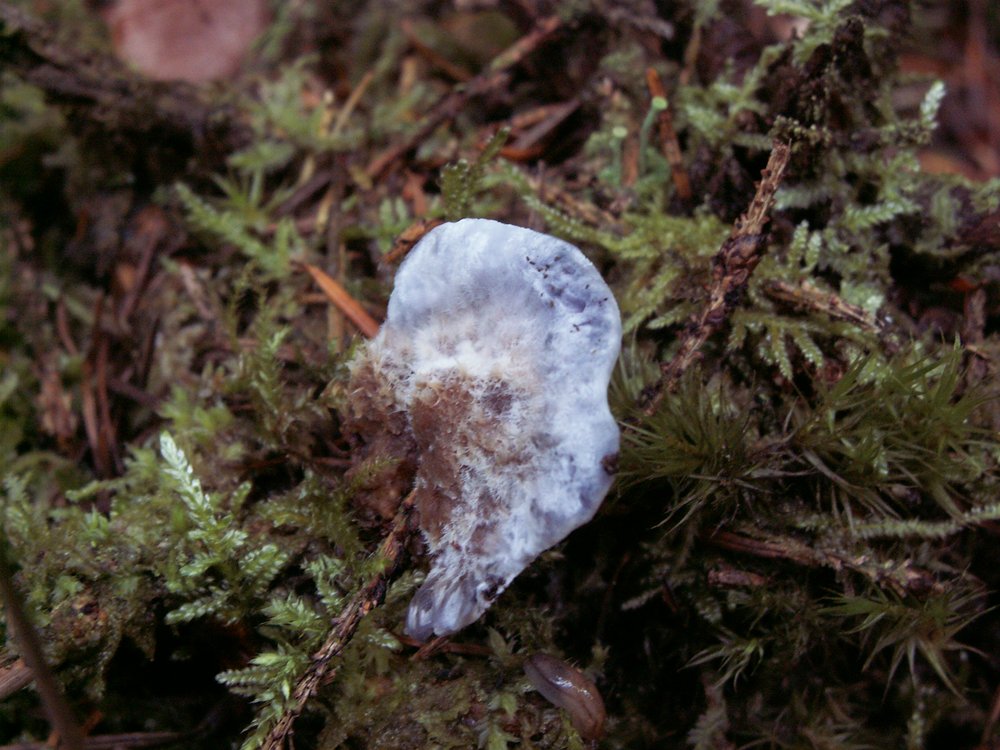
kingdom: Fungi
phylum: Basidiomycota
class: Agaricomycetes
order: Thelephorales
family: Bankeraceae
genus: Hydnellum
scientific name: Hydnellum caeruleum
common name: blålig korkpigsvamp
